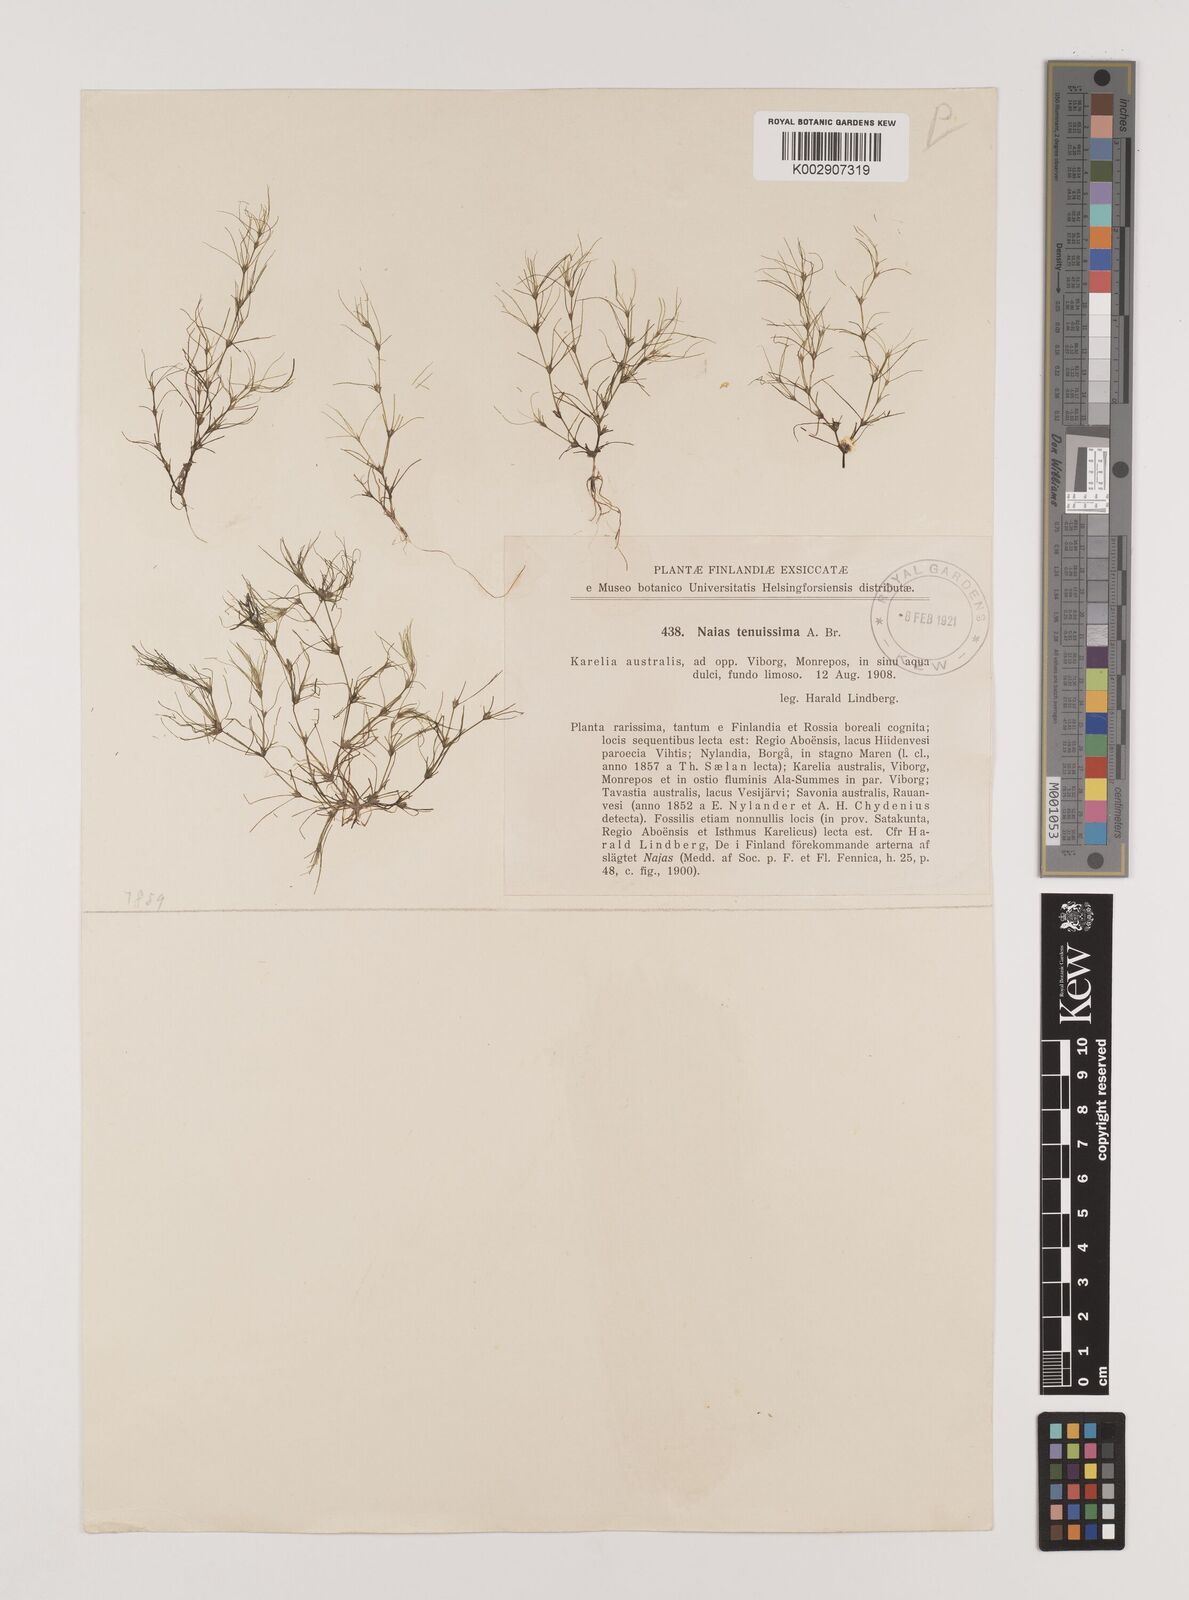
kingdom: Plantae
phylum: Tracheophyta
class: Liliopsida
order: Alismatales
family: Hydrocharitaceae
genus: Najas
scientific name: Najas tenuissima
